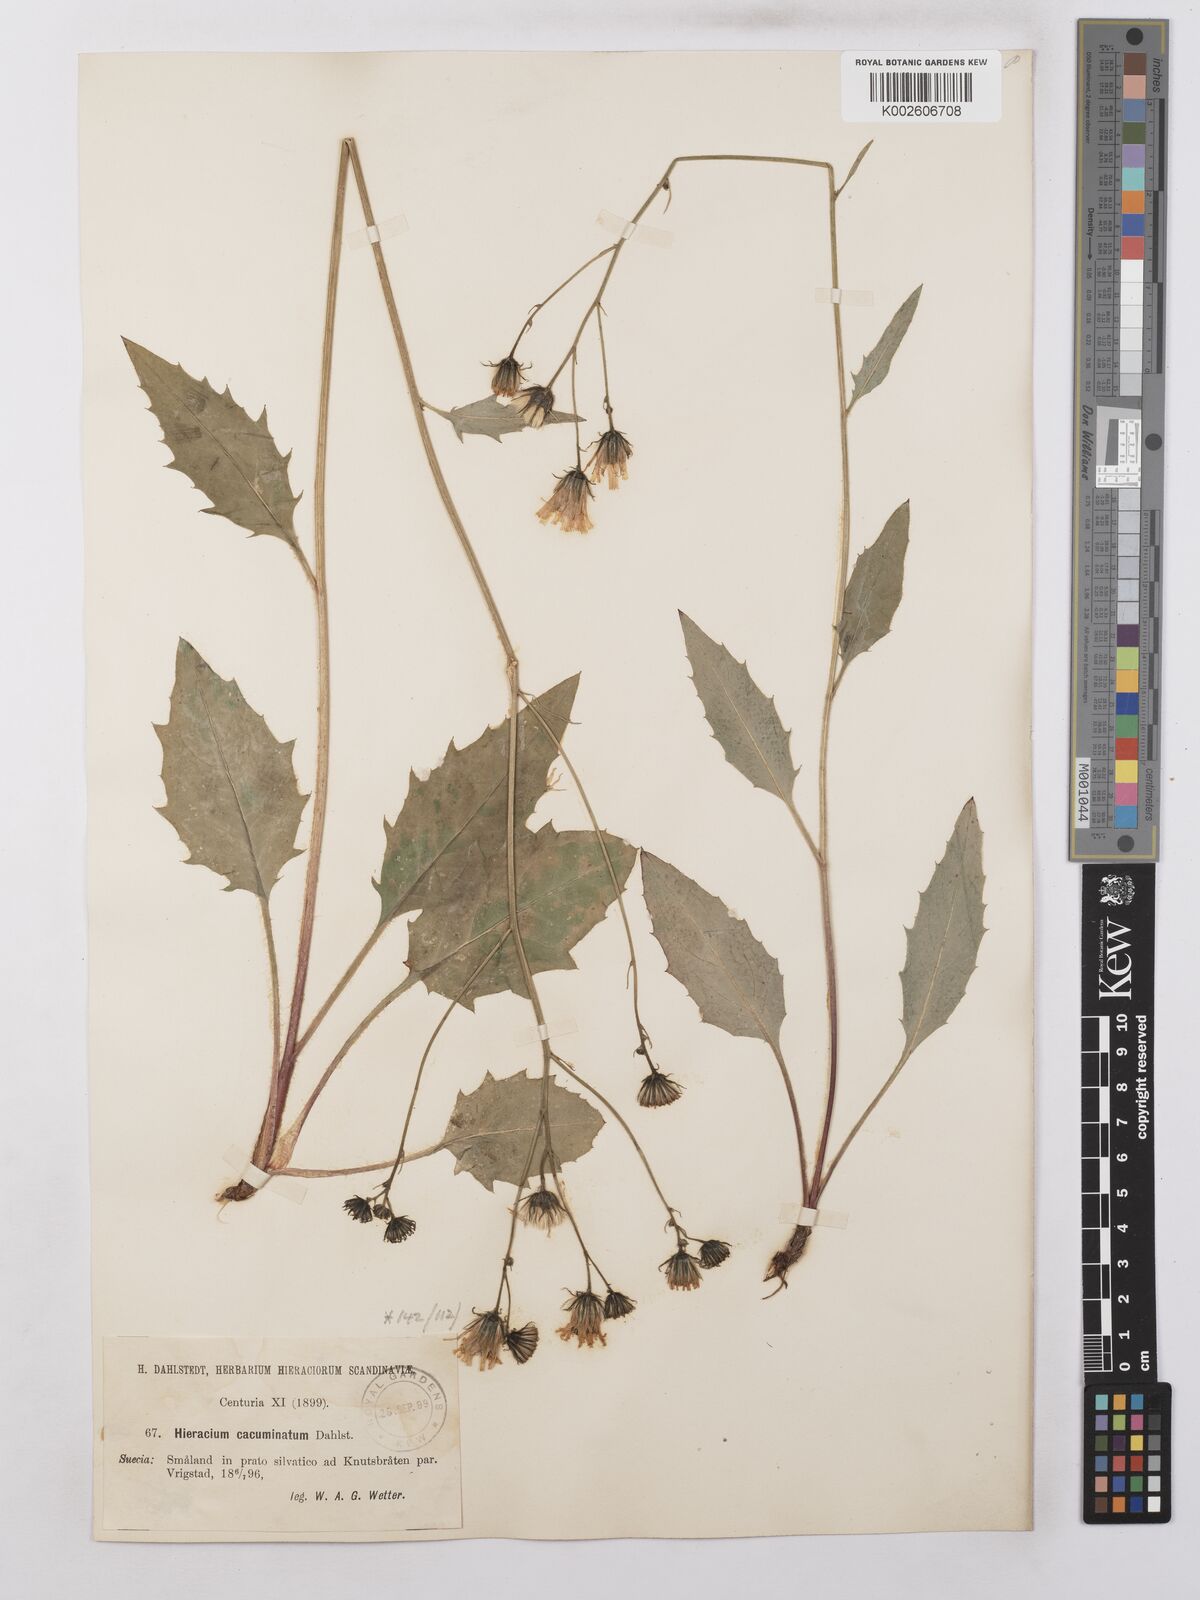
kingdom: Plantae
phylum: Tracheophyta
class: Magnoliopsida
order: Asterales
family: Asteraceae
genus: Hieracium
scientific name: Hieracium lachenalii
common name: Common hawkweed
